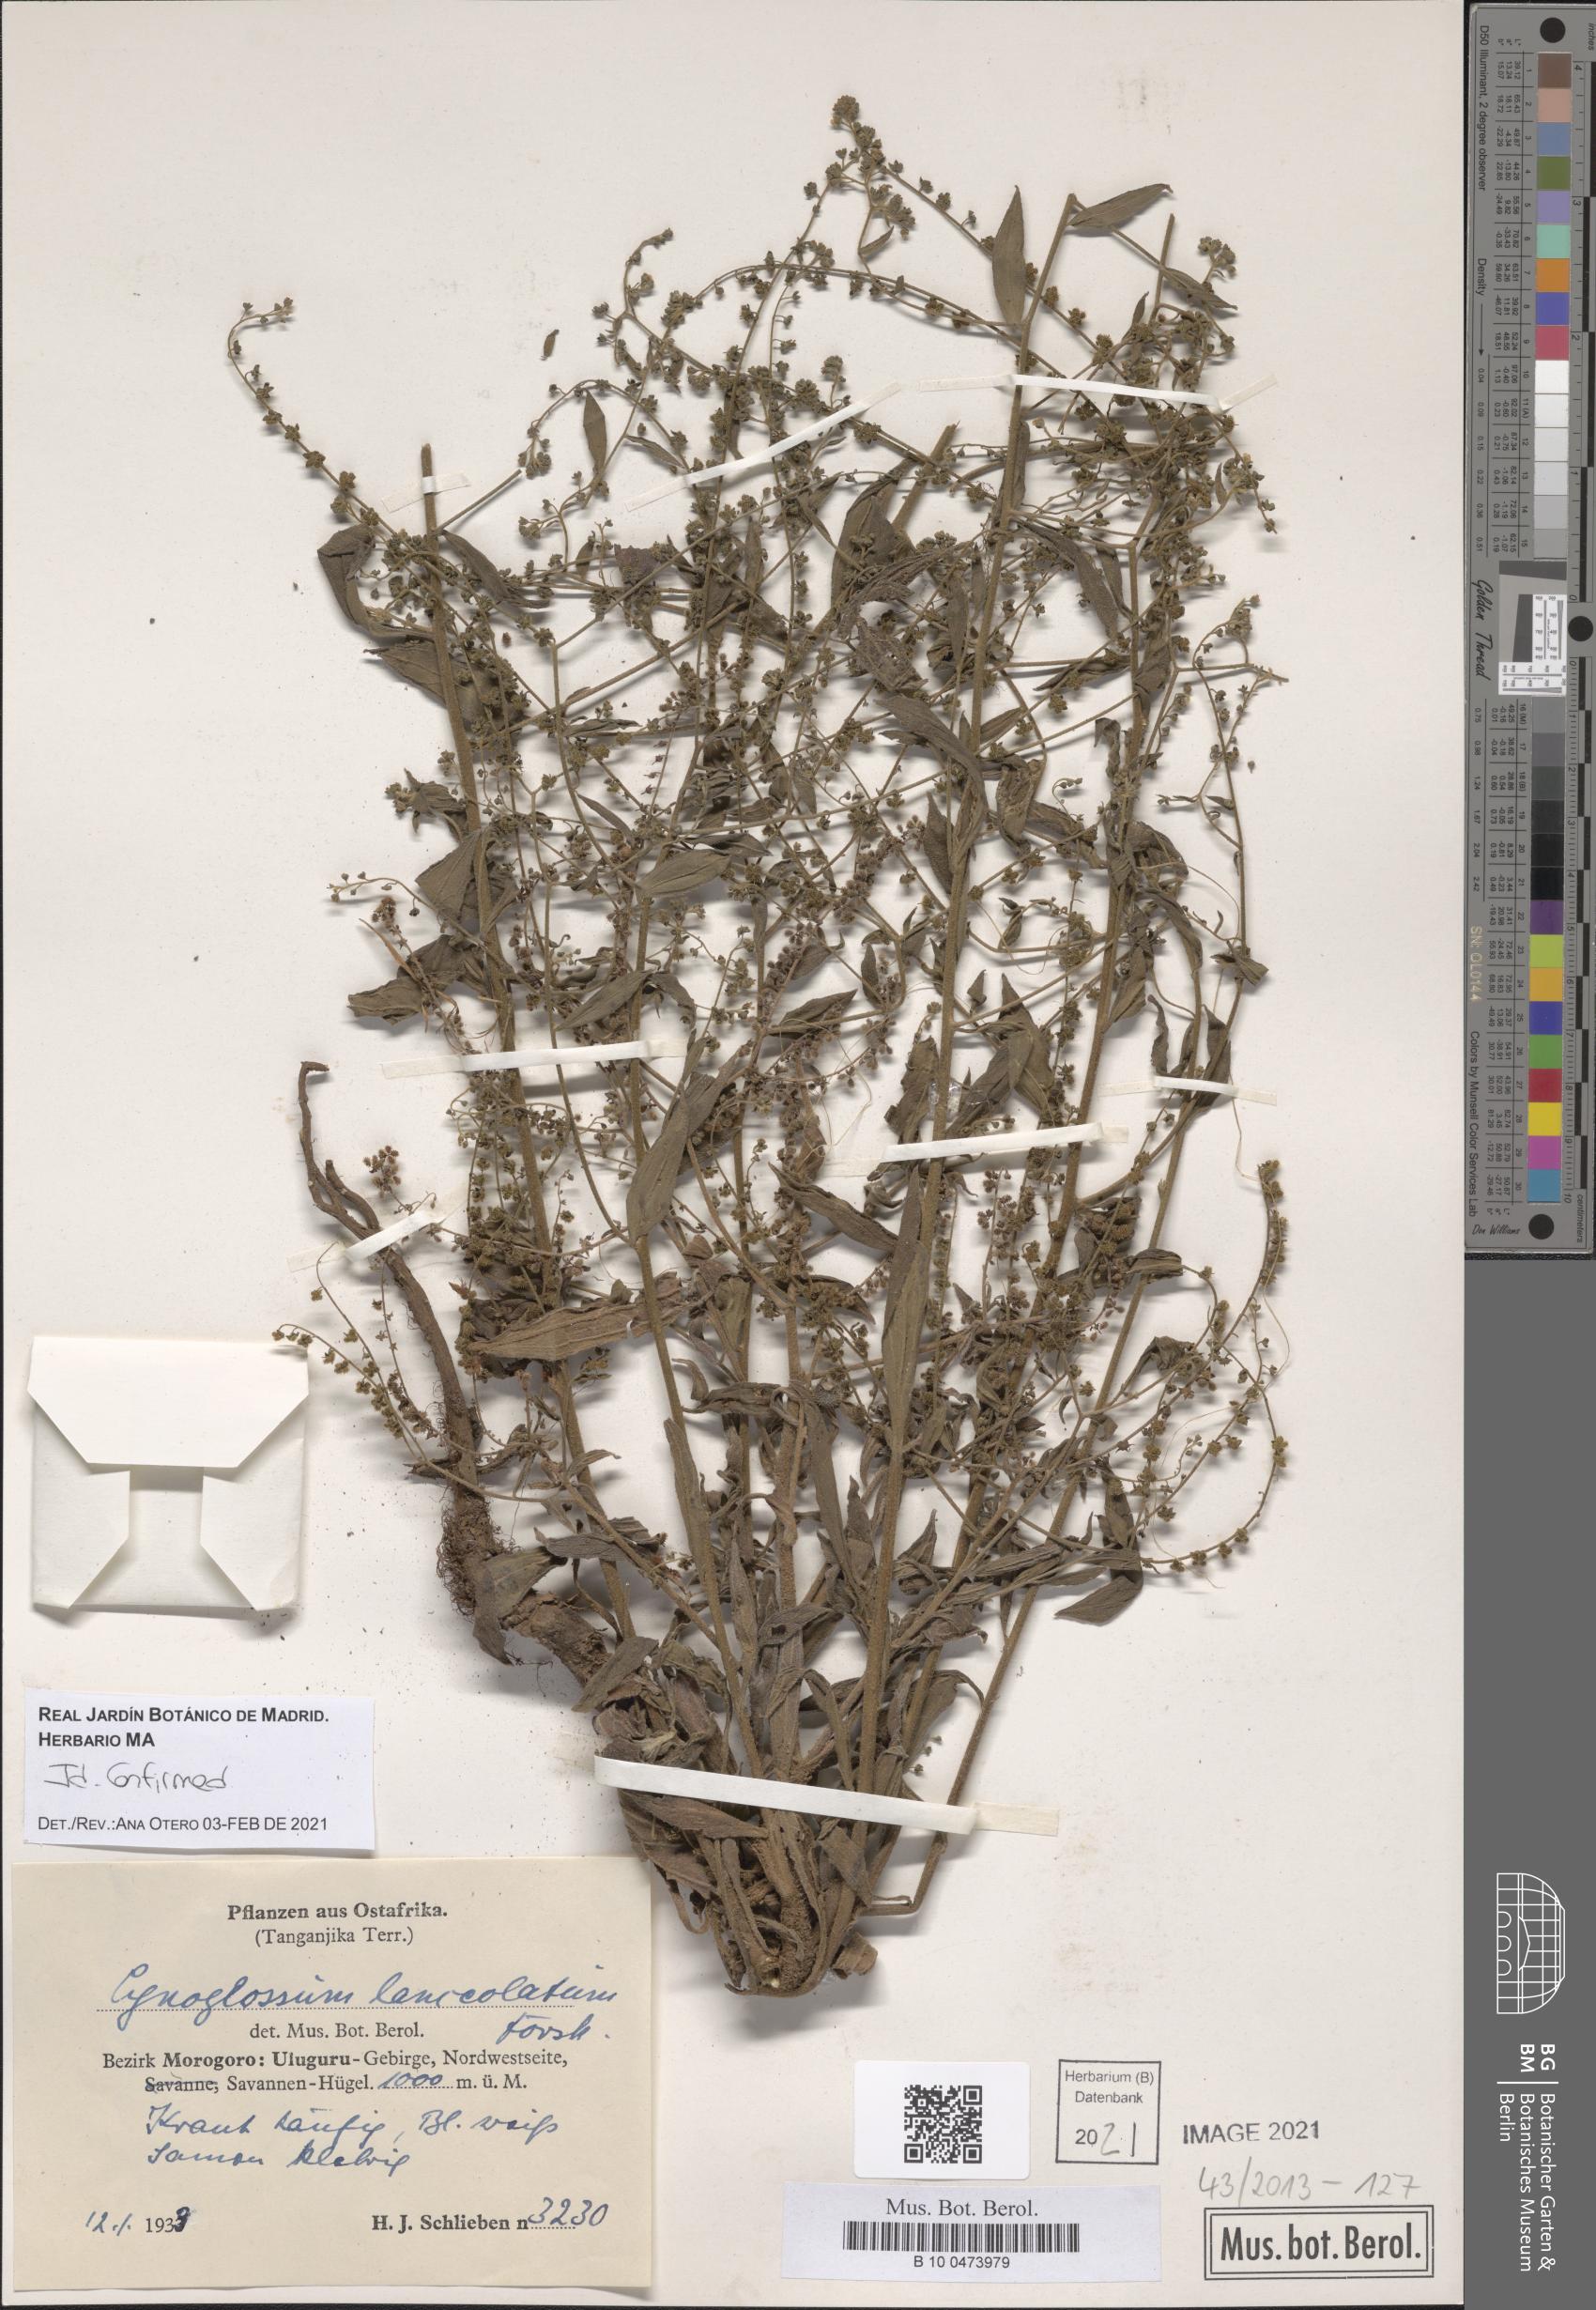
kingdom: Plantae
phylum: Tracheophyta
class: Magnoliopsida
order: Boraginales
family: Boraginaceae
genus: Paracynoglossum
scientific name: Paracynoglossum lanceolatum
